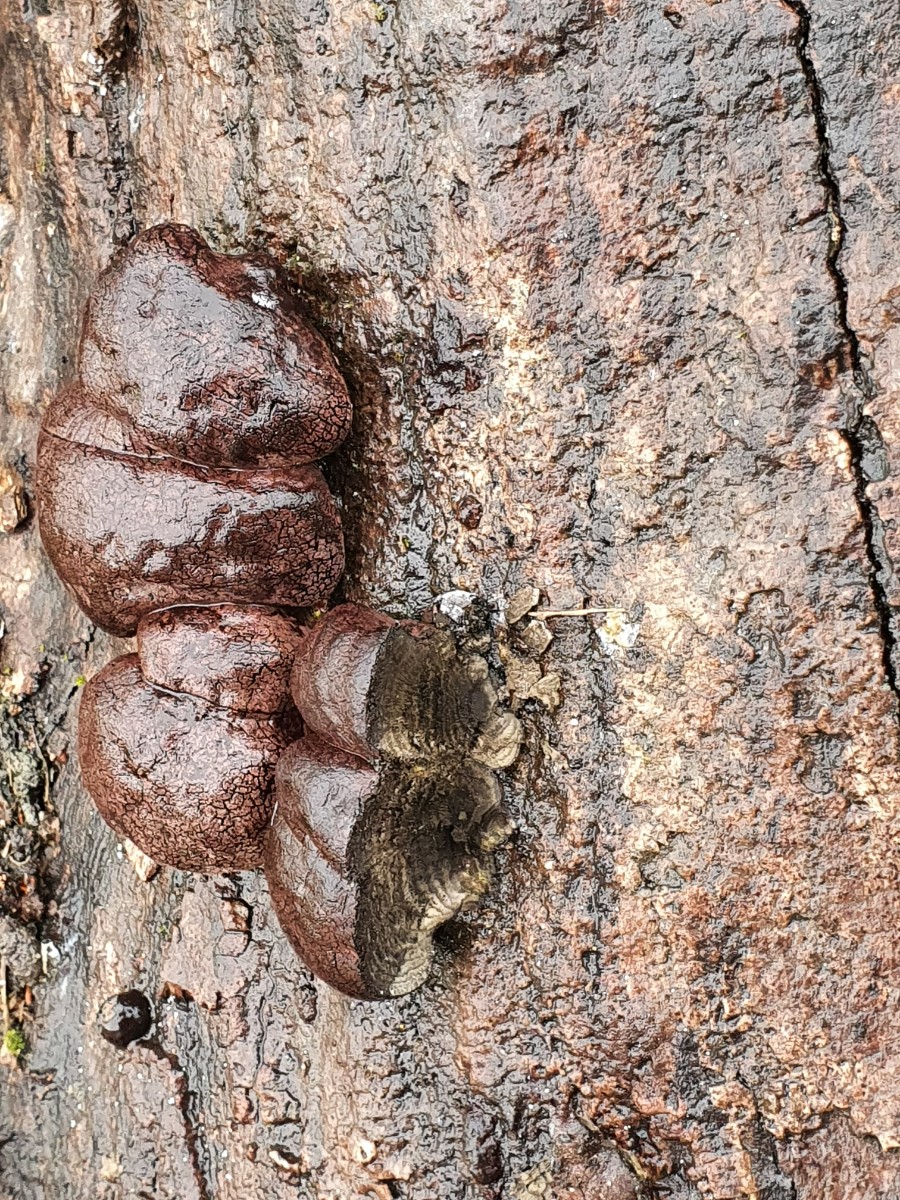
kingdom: Fungi
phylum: Ascomycota
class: Sordariomycetes
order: Xylariales
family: Hypoxylaceae
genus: Daldinia
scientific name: Daldinia concentrica
